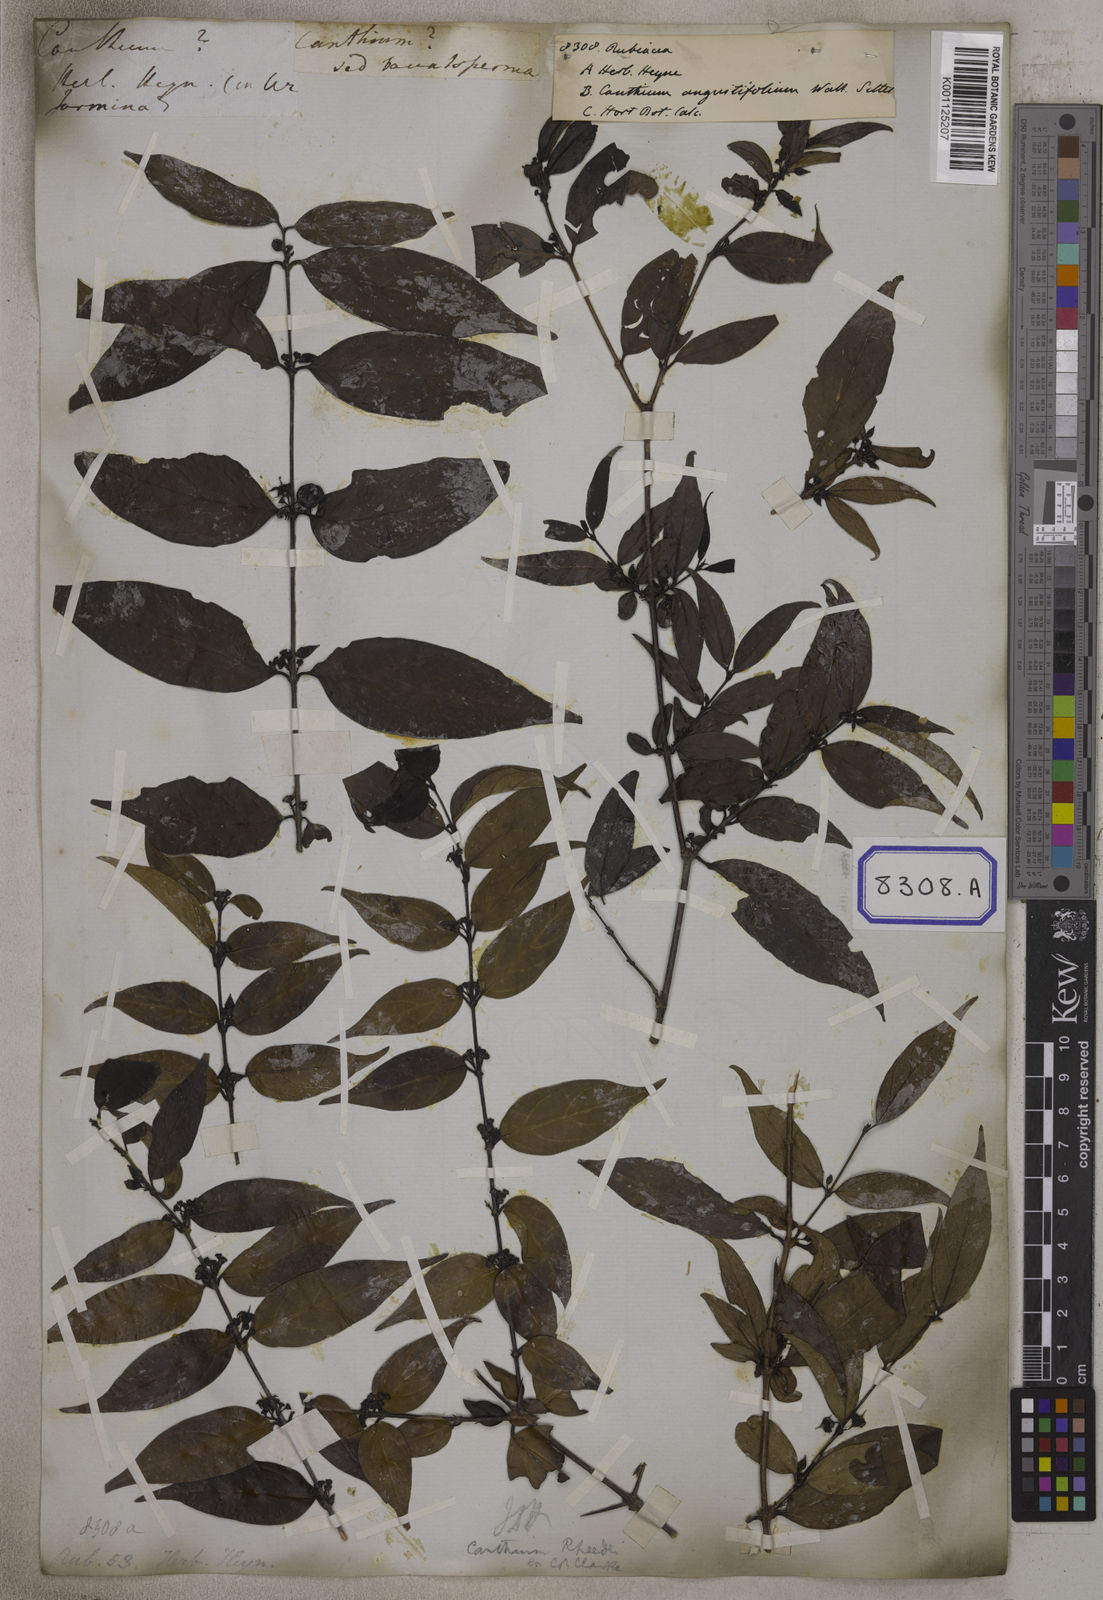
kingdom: Plantae
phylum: Tracheophyta
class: Magnoliopsida
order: Gentianales
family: Rubiaceae
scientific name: Rubiaceae
